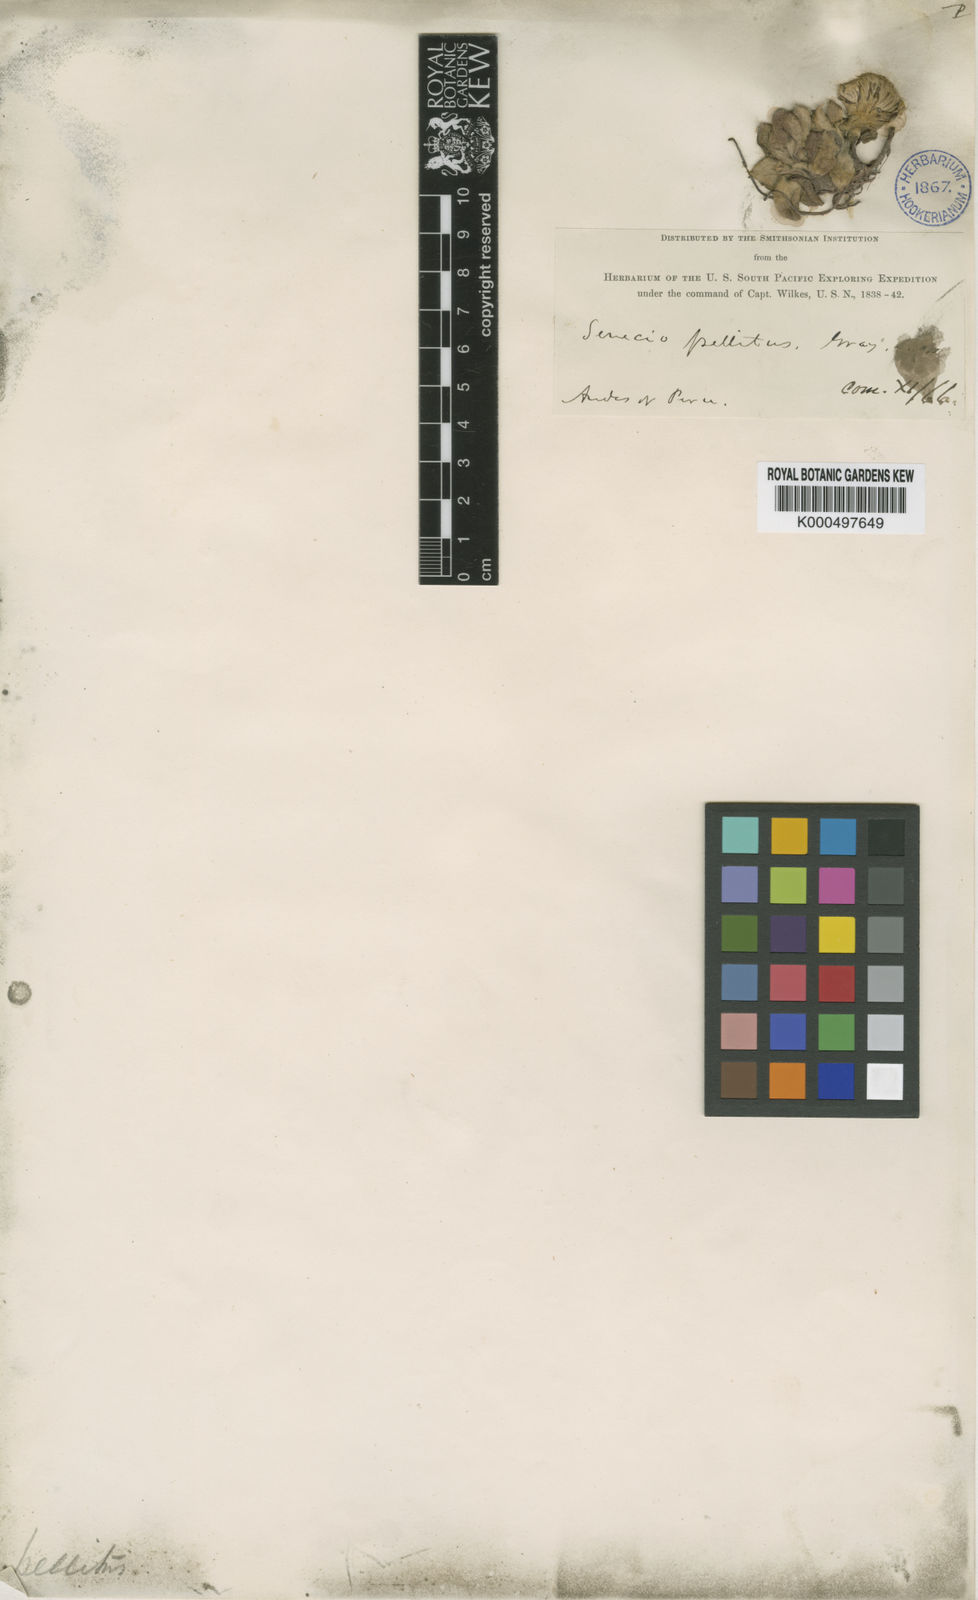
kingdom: Plantae
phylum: Tracheophyta
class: Magnoliopsida
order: Asterales
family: Asteraceae
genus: Chersodoma
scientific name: Chersodoma antennaria
